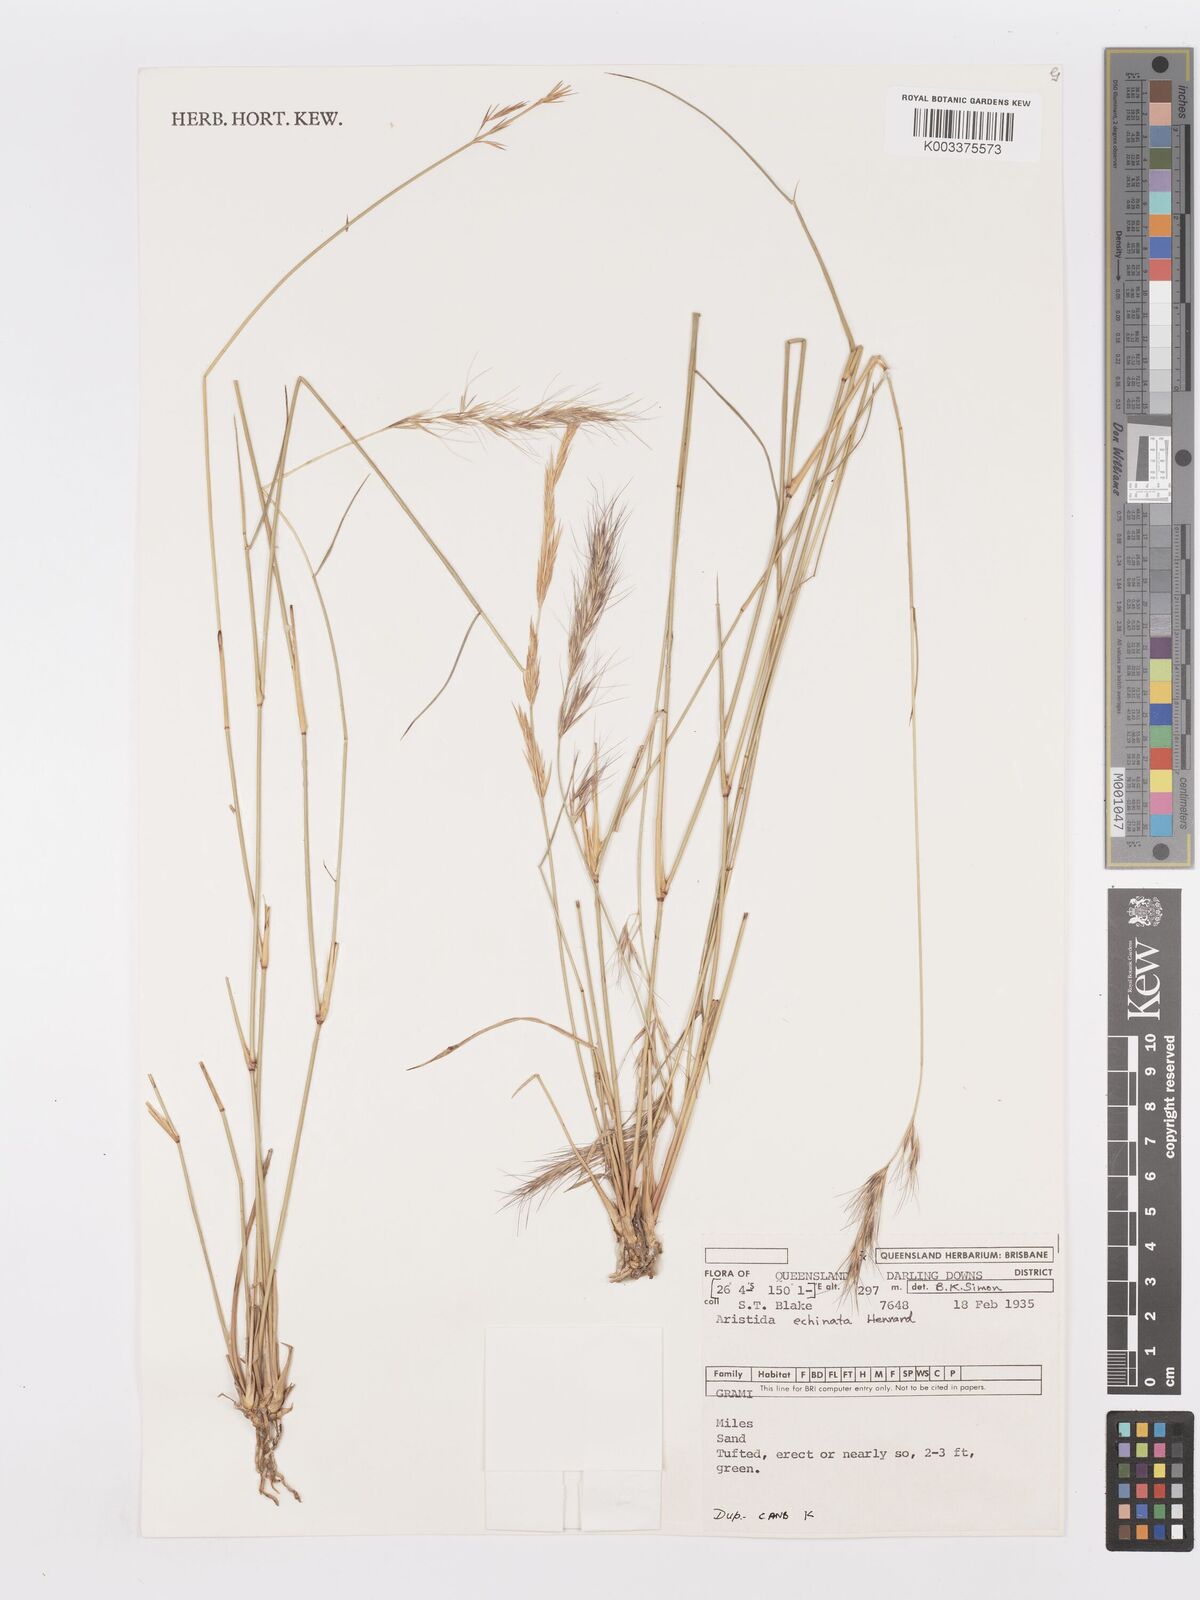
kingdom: Plantae
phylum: Tracheophyta
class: Liliopsida
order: Poales
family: Poaceae
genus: Aristida
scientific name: Aristida echinata
